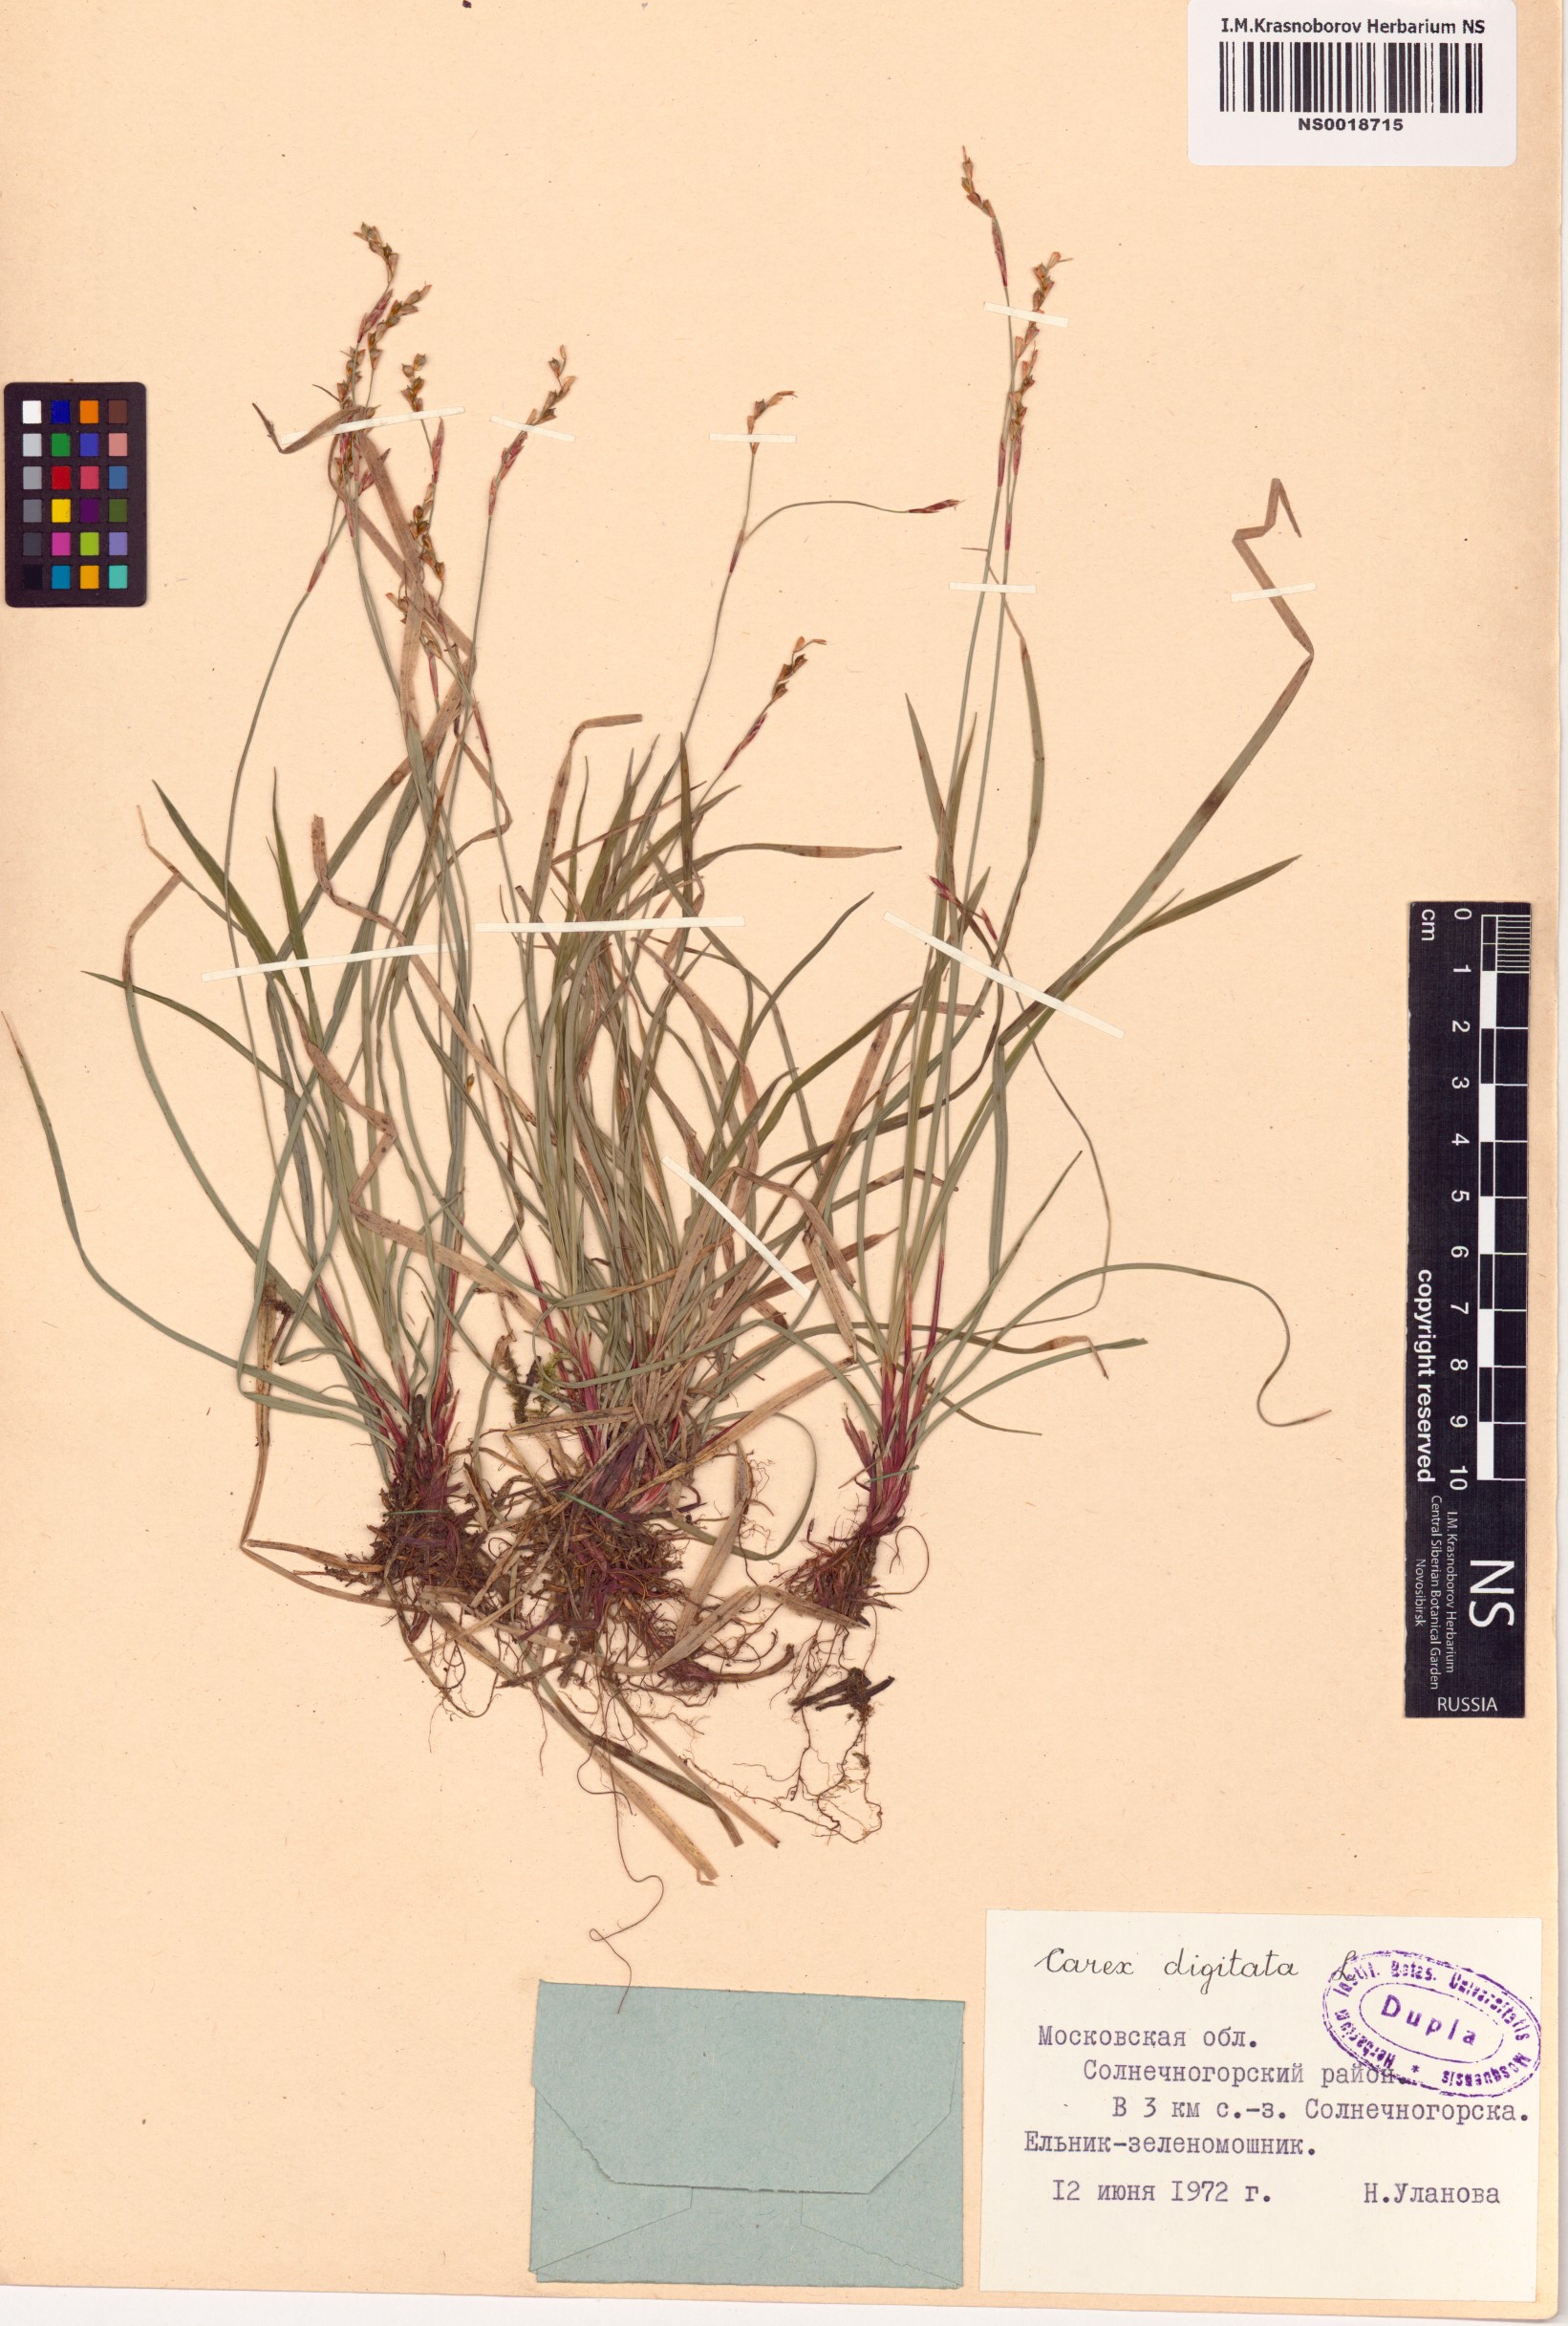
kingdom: Plantae
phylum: Tracheophyta
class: Liliopsida
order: Poales
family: Cyperaceae
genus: Carex
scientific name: Carex digitata
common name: Fingered sedge
